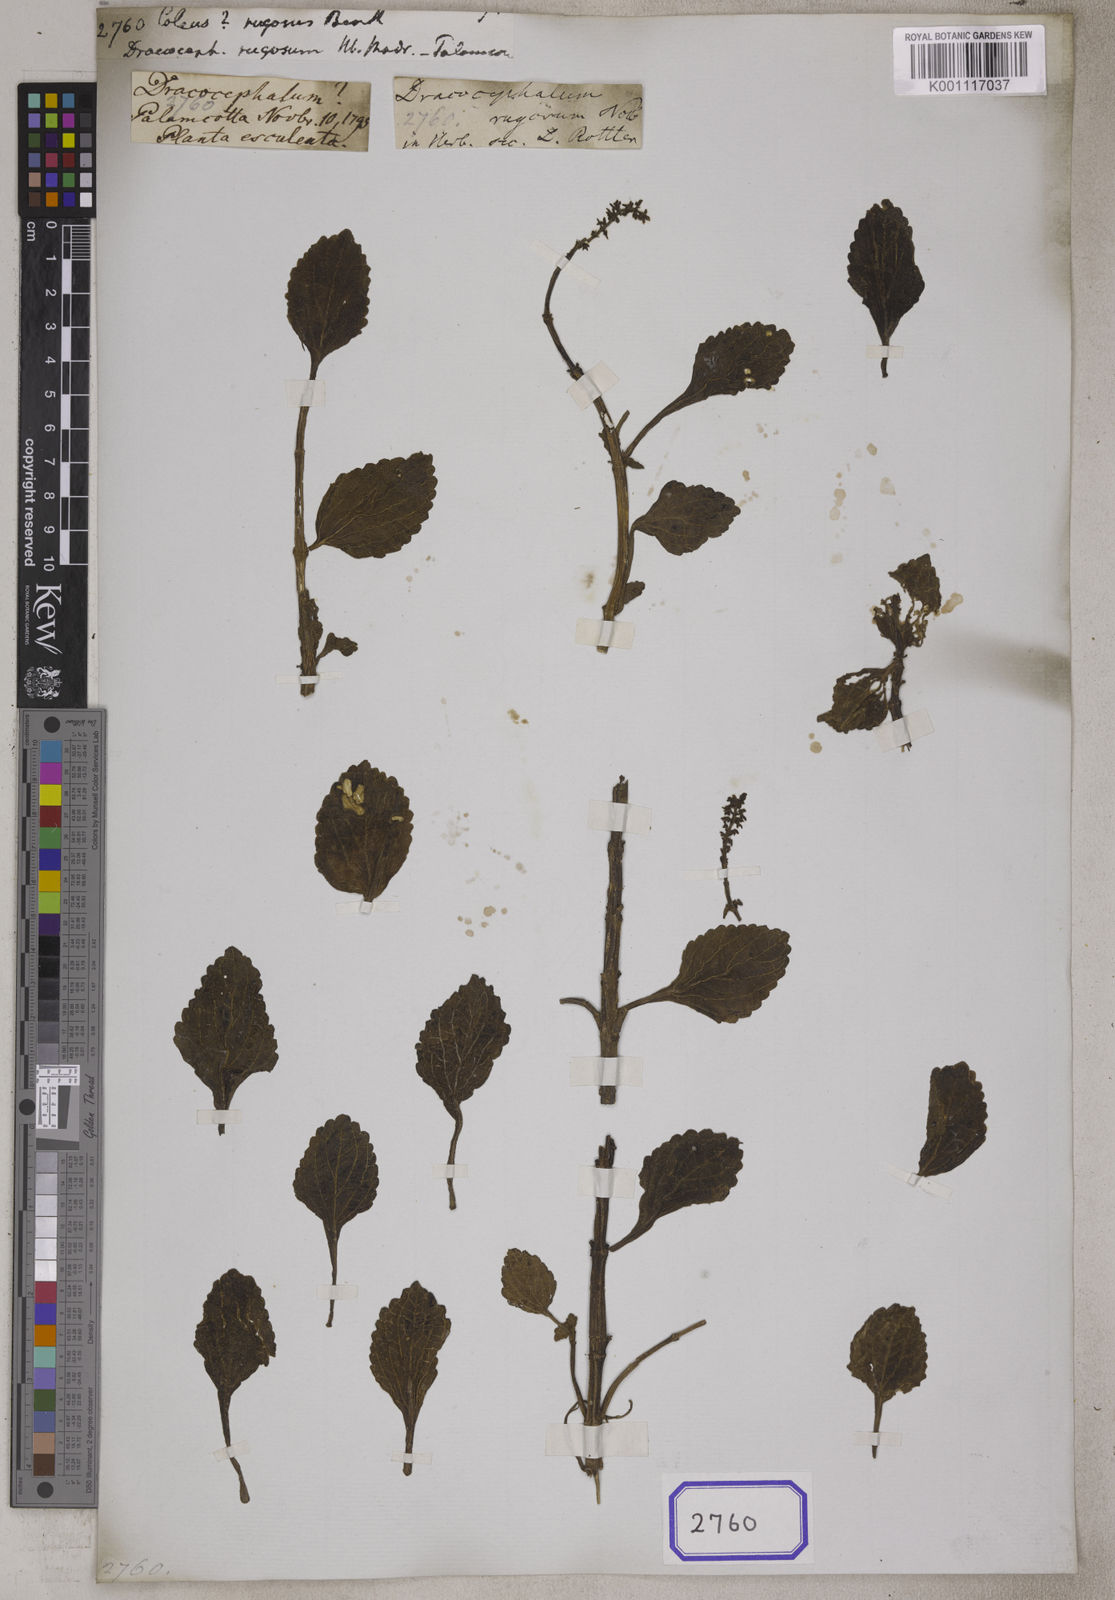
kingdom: Plantae
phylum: Tracheophyta
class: Magnoliopsida
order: Lamiales
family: Lamiaceae
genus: Coleus
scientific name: Coleus rotundifolius
